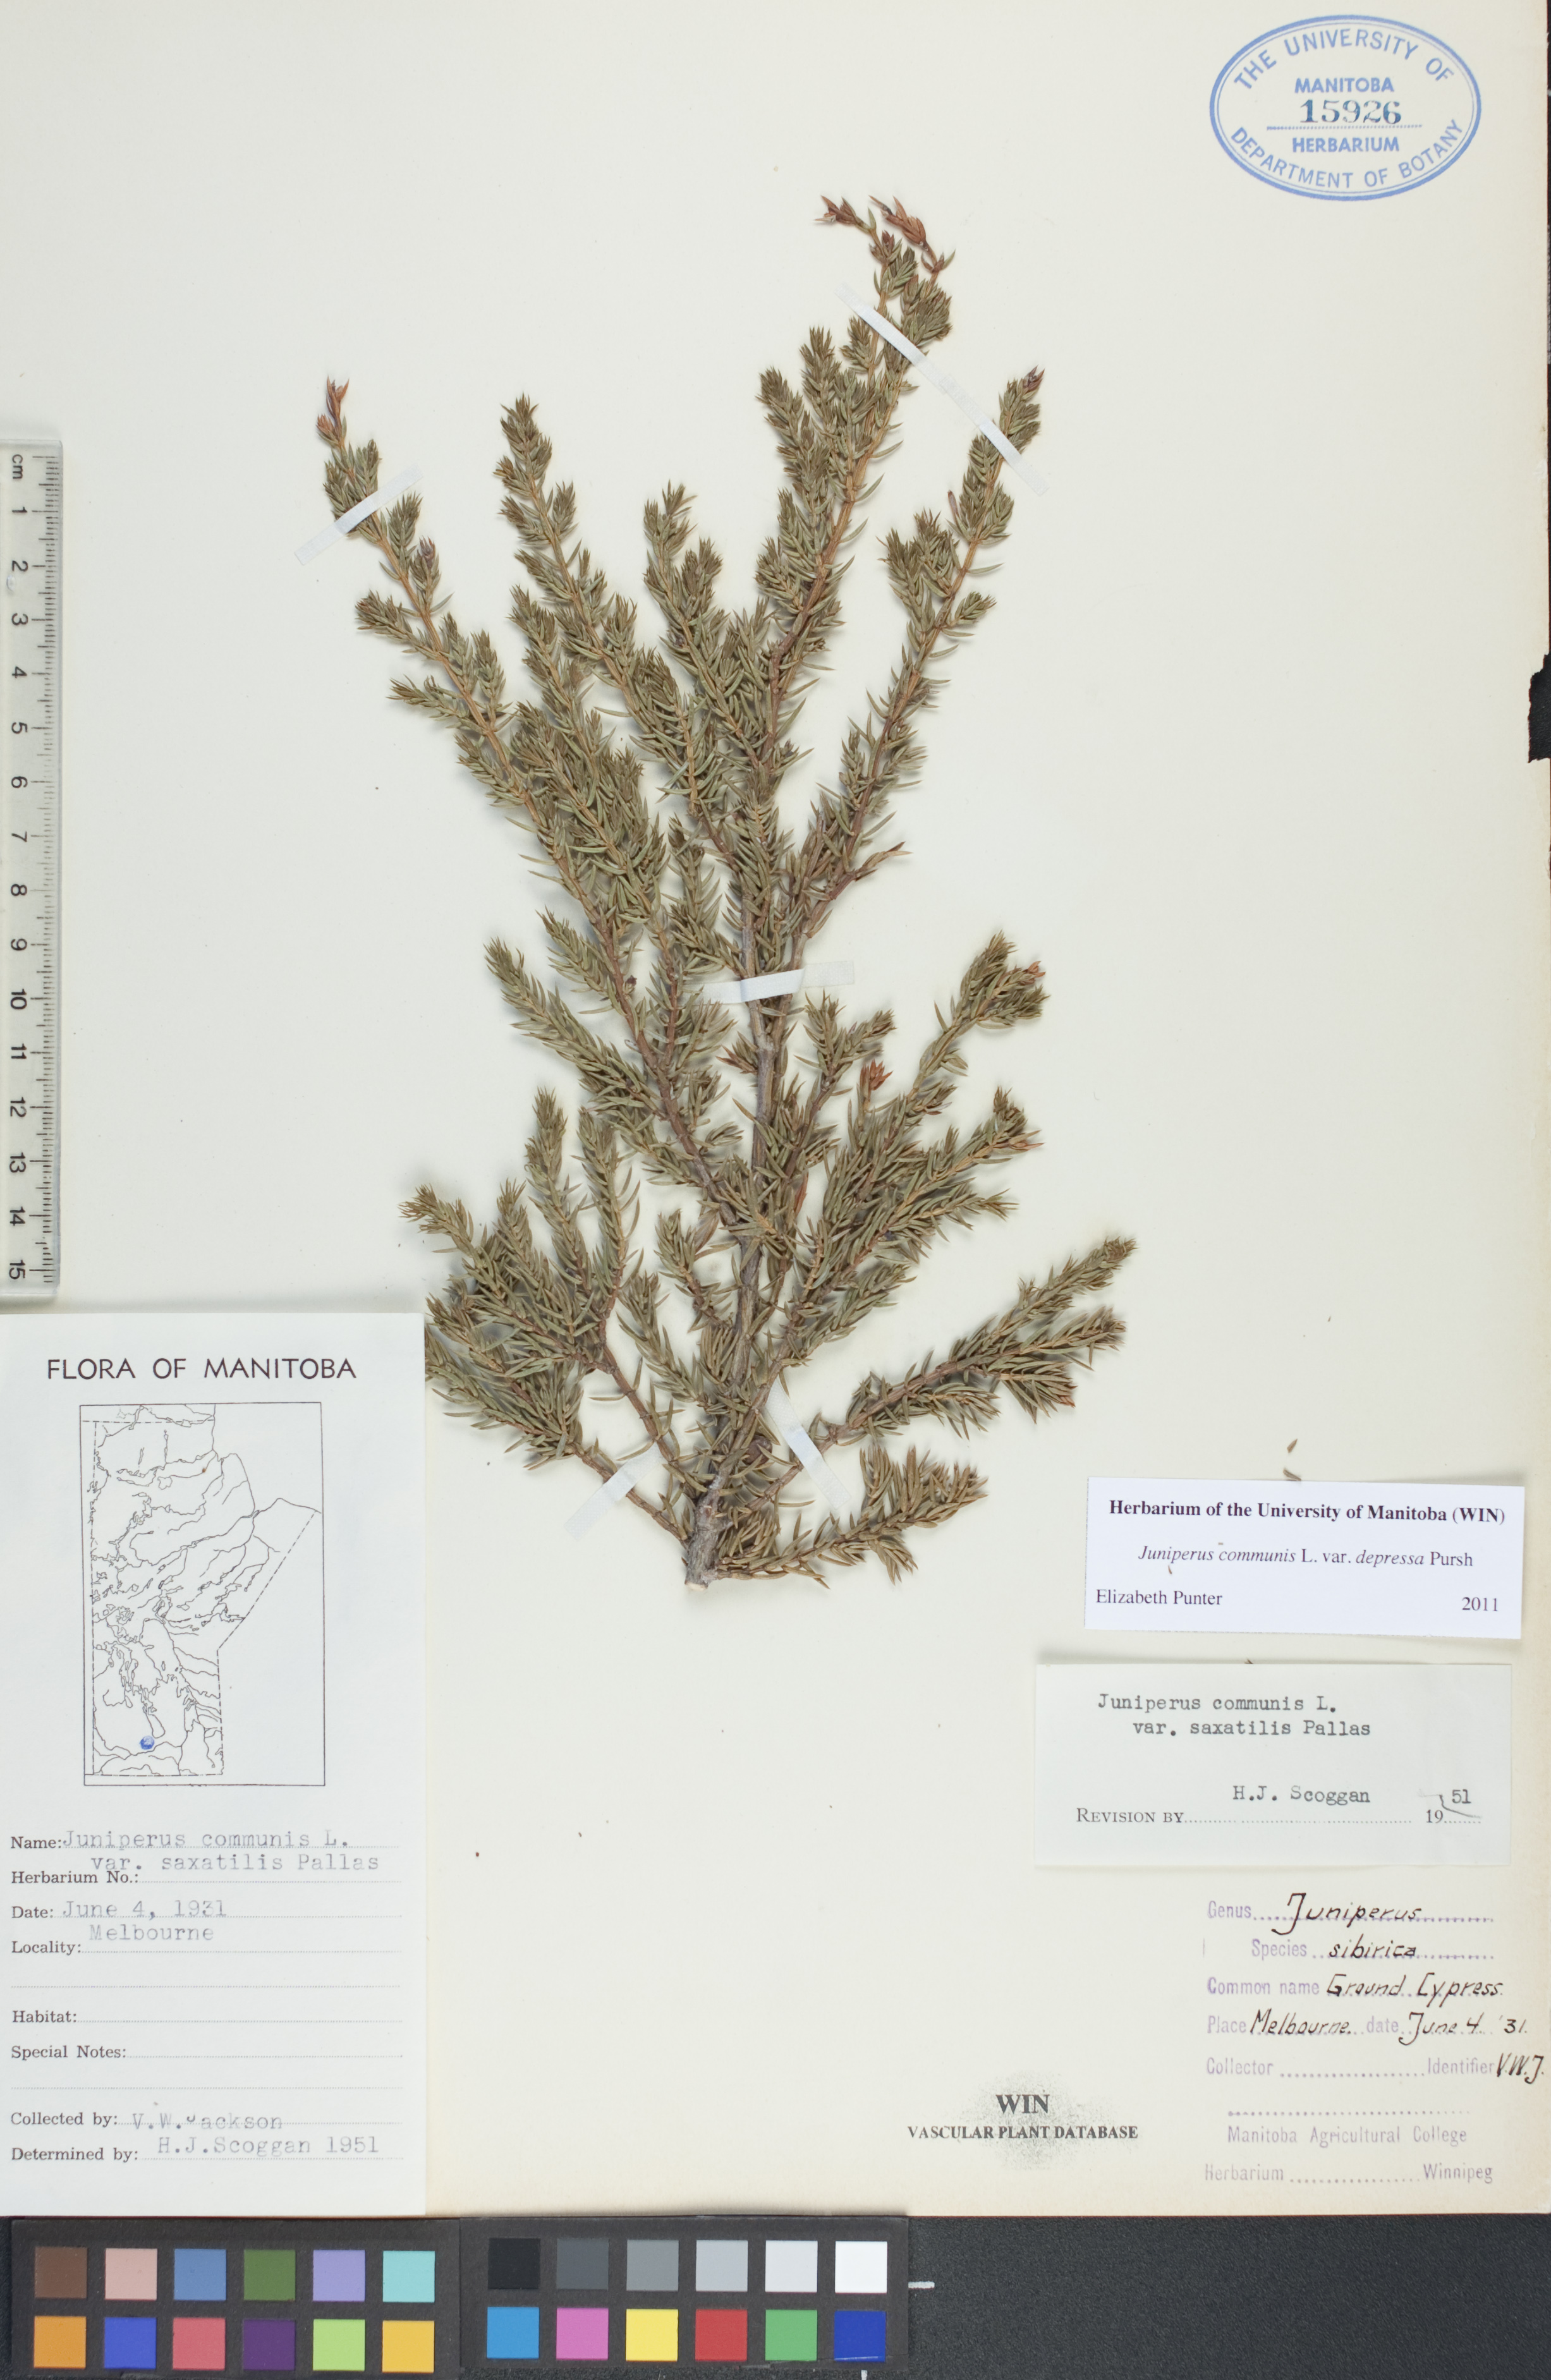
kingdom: Plantae
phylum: Tracheophyta
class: Pinopsida
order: Pinales
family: Cupressaceae
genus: Juniperus
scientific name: Juniperus communis
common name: Common juniper
